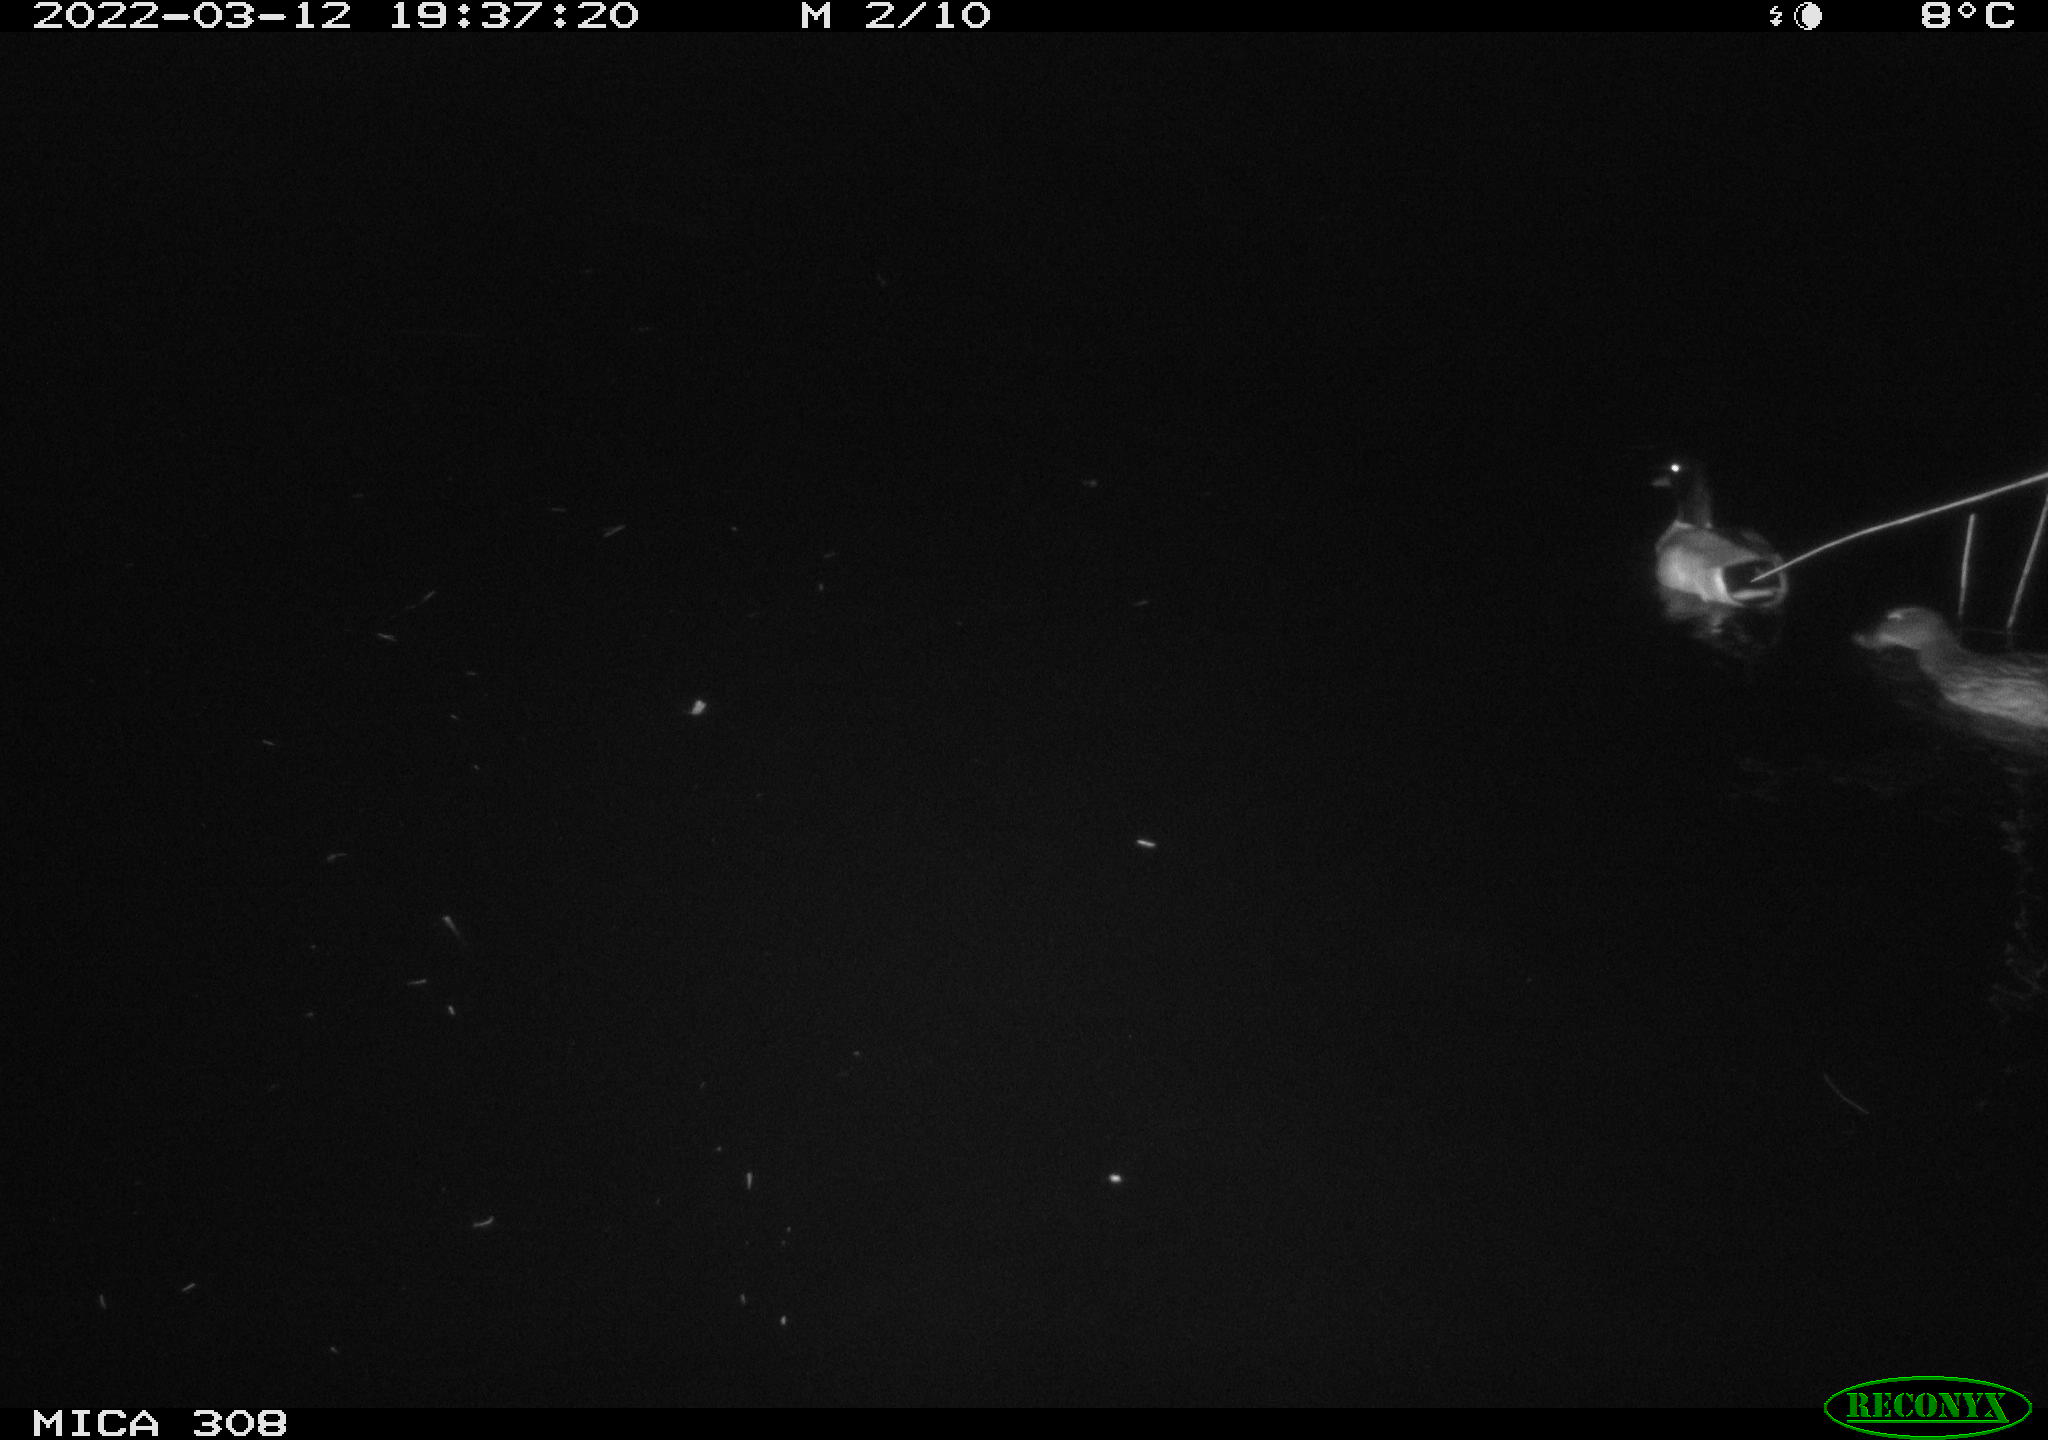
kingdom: Animalia
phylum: Chordata
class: Aves
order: Anseriformes
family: Anatidae
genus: Anas
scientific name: Anas platyrhynchos
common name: Mallard
